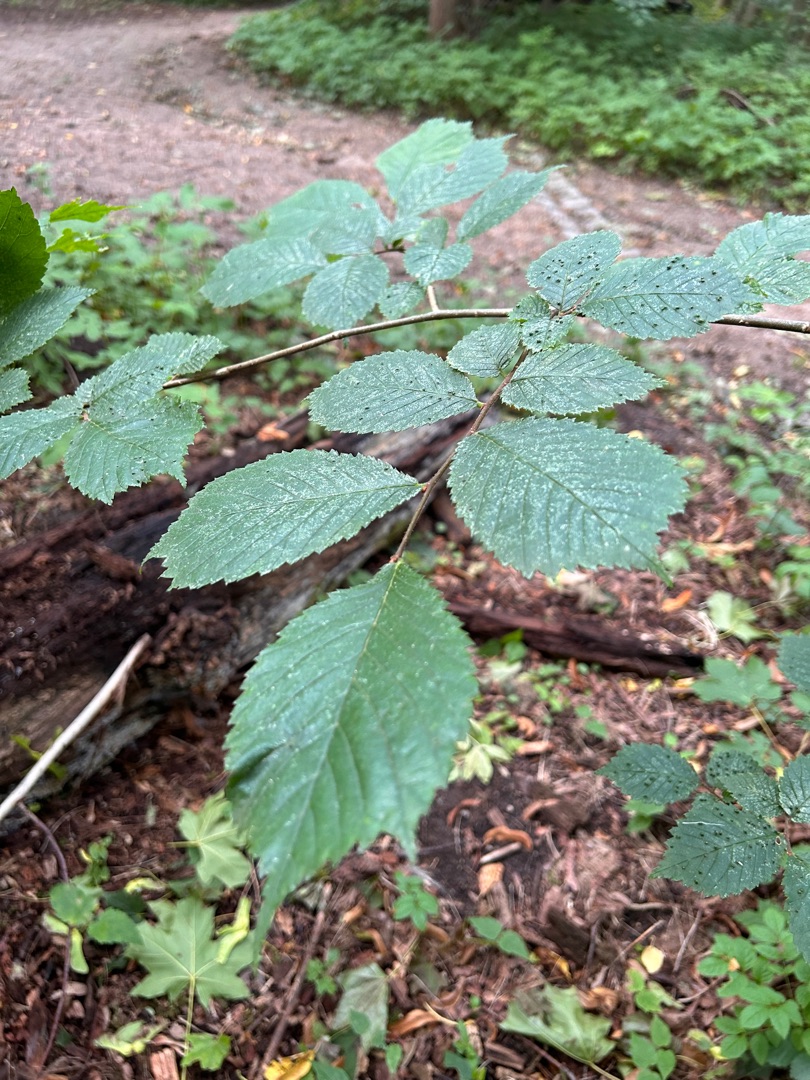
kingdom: Plantae
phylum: Tracheophyta
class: Magnoliopsida
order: Rosales
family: Ulmaceae
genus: Ulmus
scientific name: Ulmus glabra
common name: Skov-elm/storbladet elm
